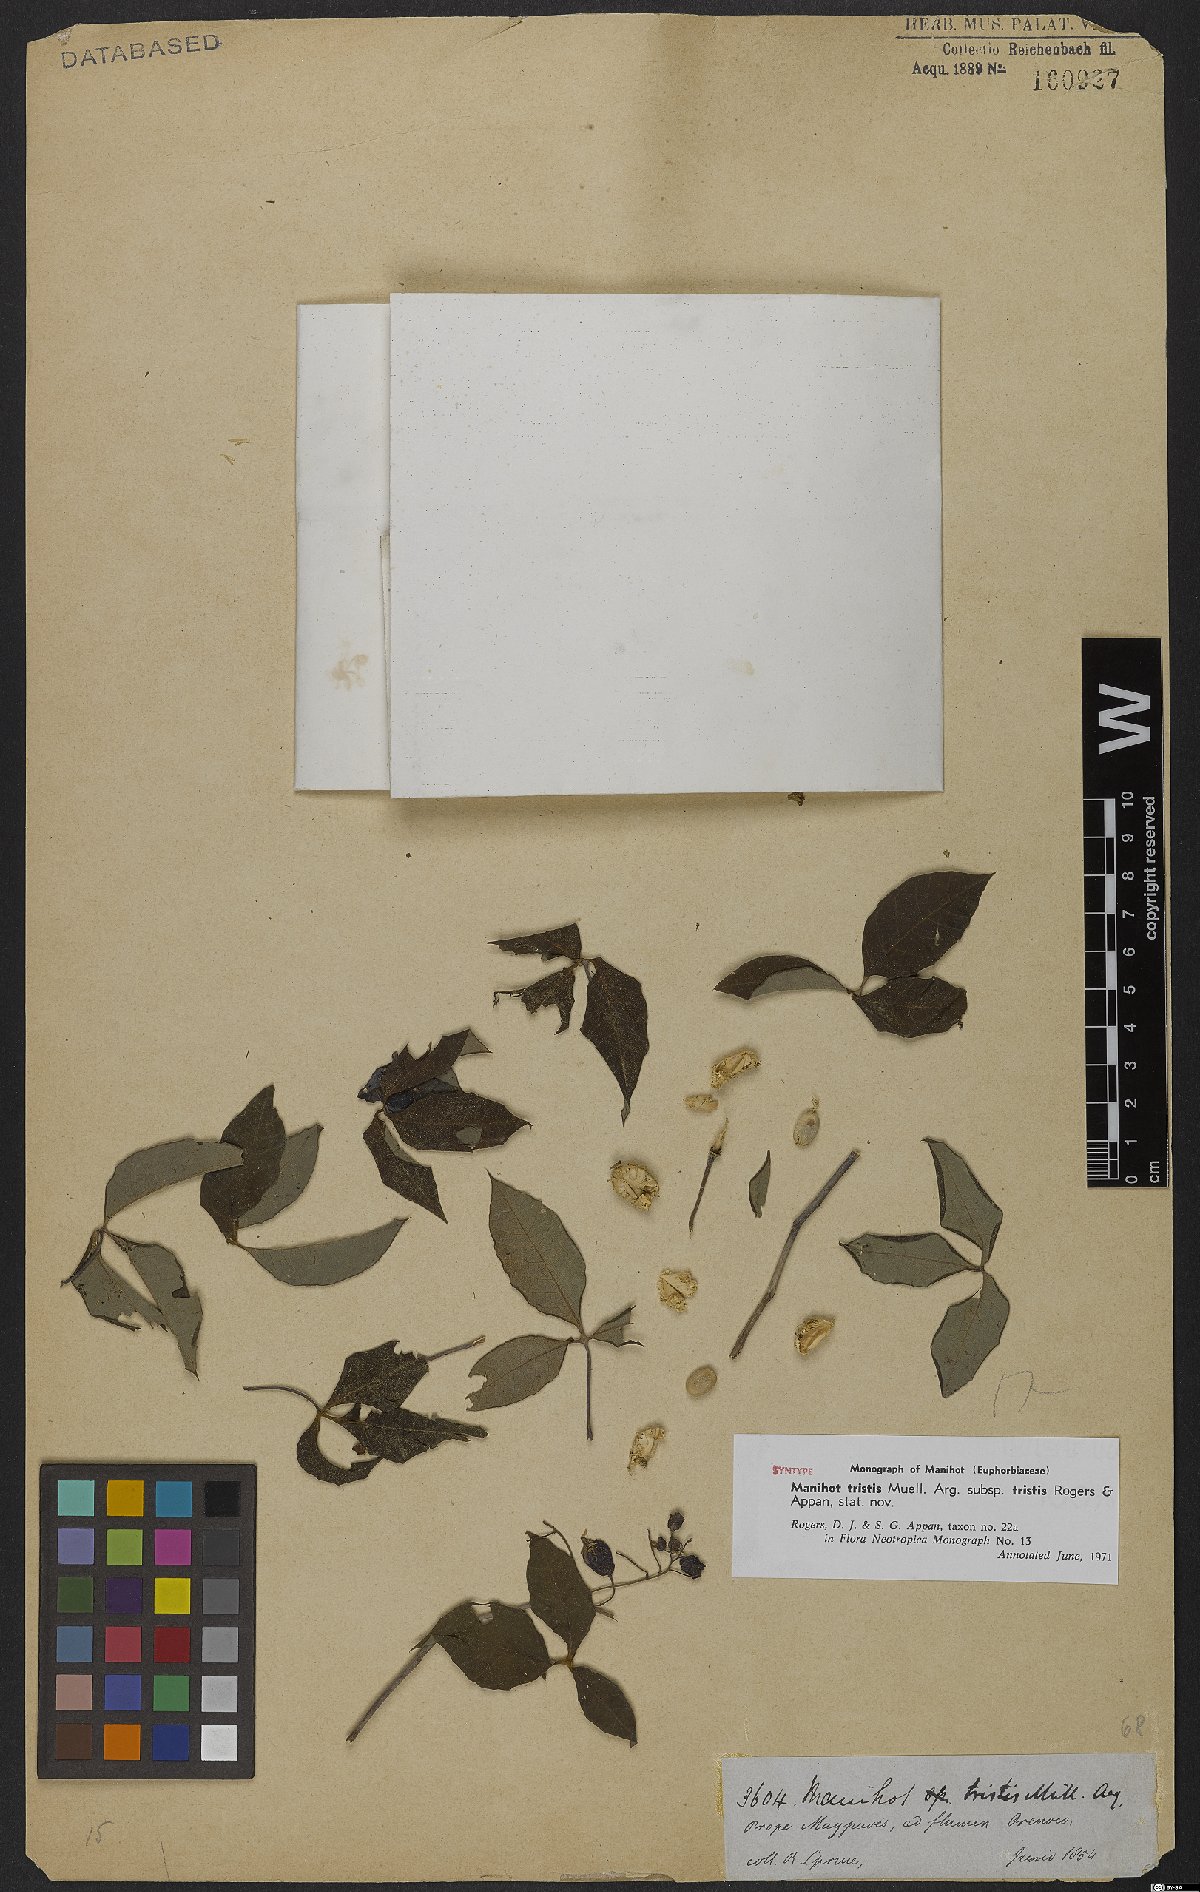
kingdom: Plantae
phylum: Tracheophyta
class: Magnoliopsida
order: Malpighiales
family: Euphorbiaceae
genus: Manihot
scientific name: Manihot tristis
